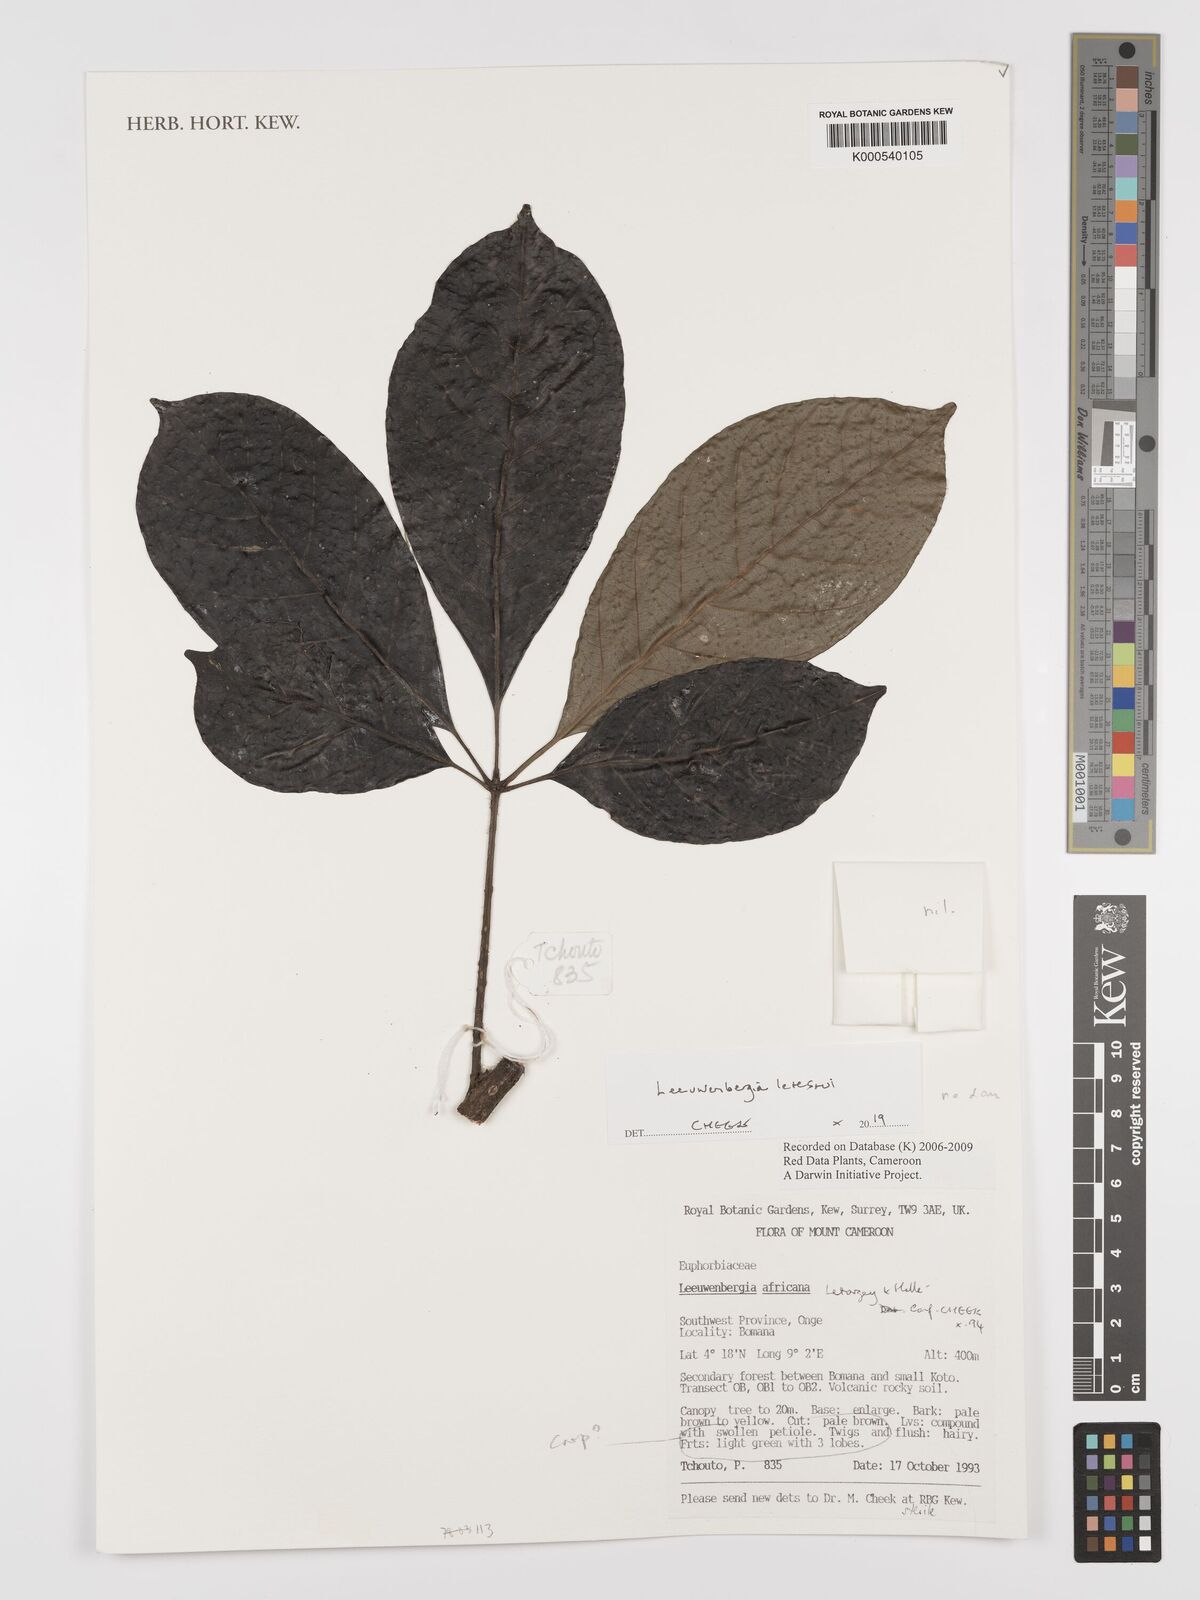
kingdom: Plantae
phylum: Tracheophyta
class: Magnoliopsida
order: Malpighiales
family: Euphorbiaceae
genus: Leeuwenbergia
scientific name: Leeuwenbergia
